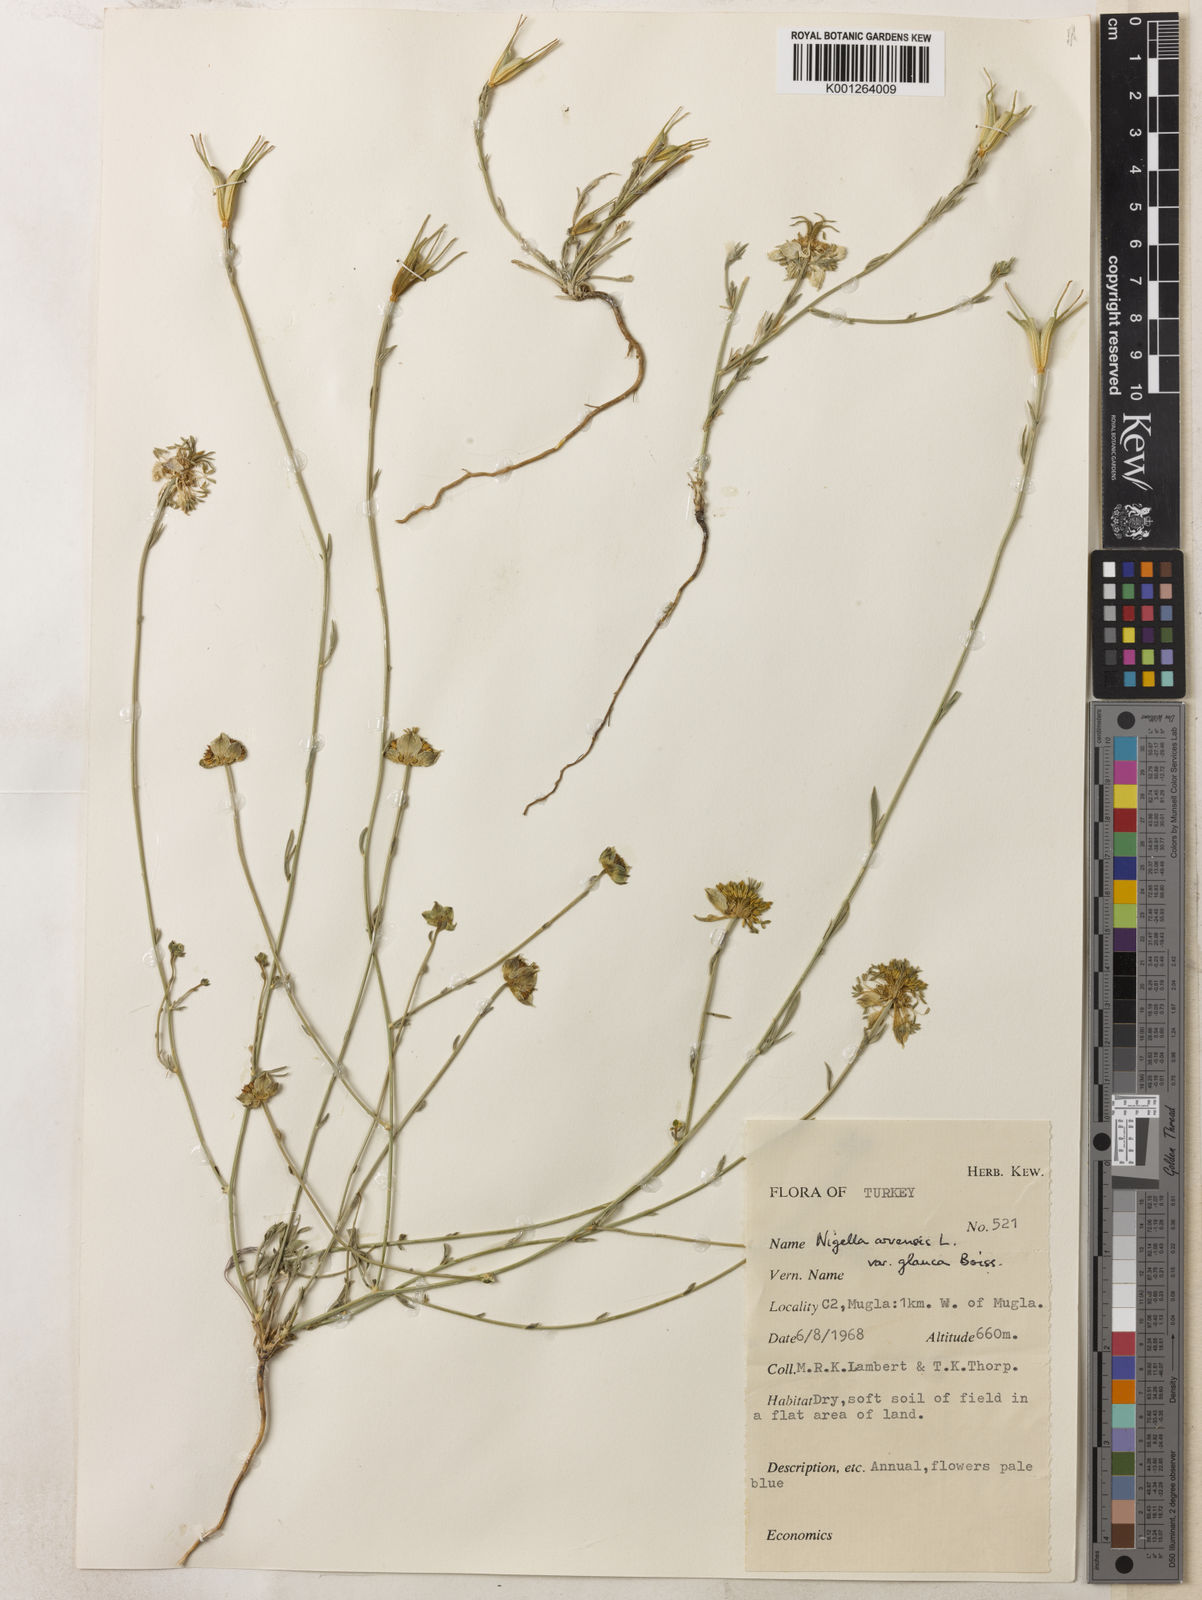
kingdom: Plantae
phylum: Tracheophyta
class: Magnoliopsida
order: Ranunculales
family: Ranunculaceae
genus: Nigella
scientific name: Nigella arvensis
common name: Wild fennel-flower
